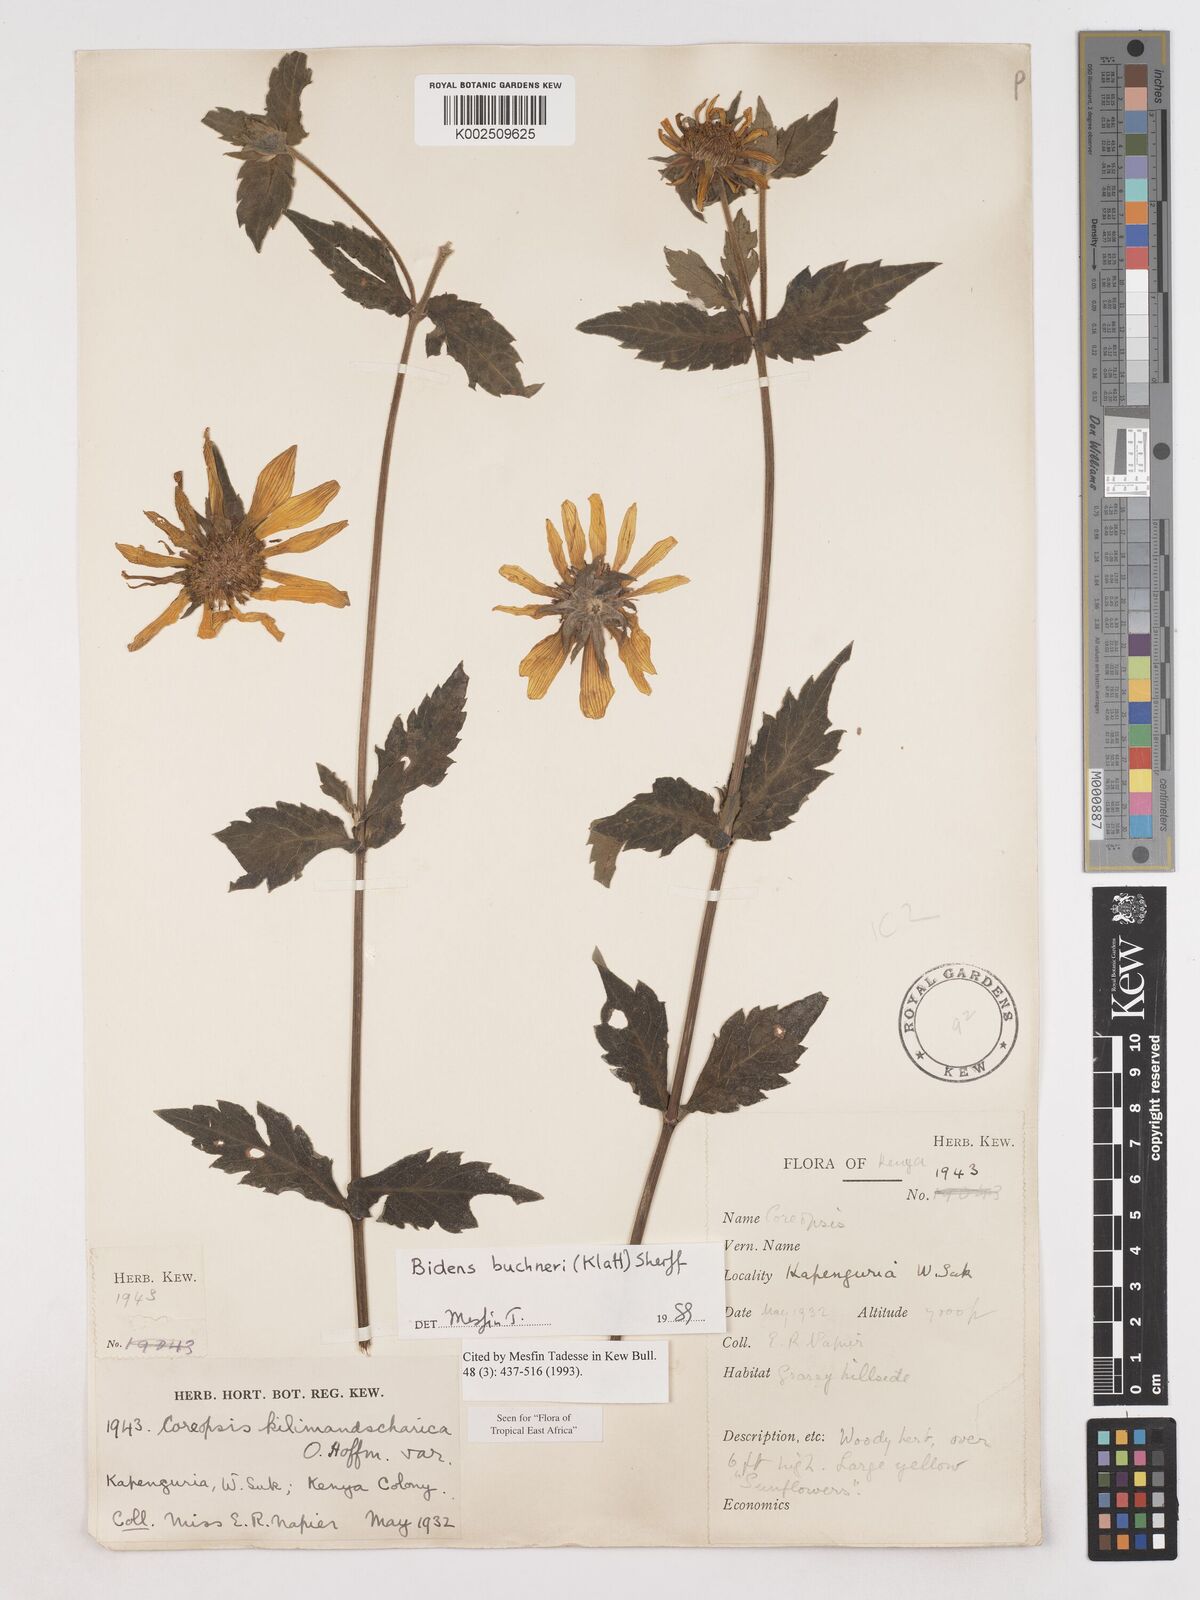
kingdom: Plantae
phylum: Tracheophyta
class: Magnoliopsida
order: Asterales
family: Asteraceae
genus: Bidens
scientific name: Bidens buchneri
